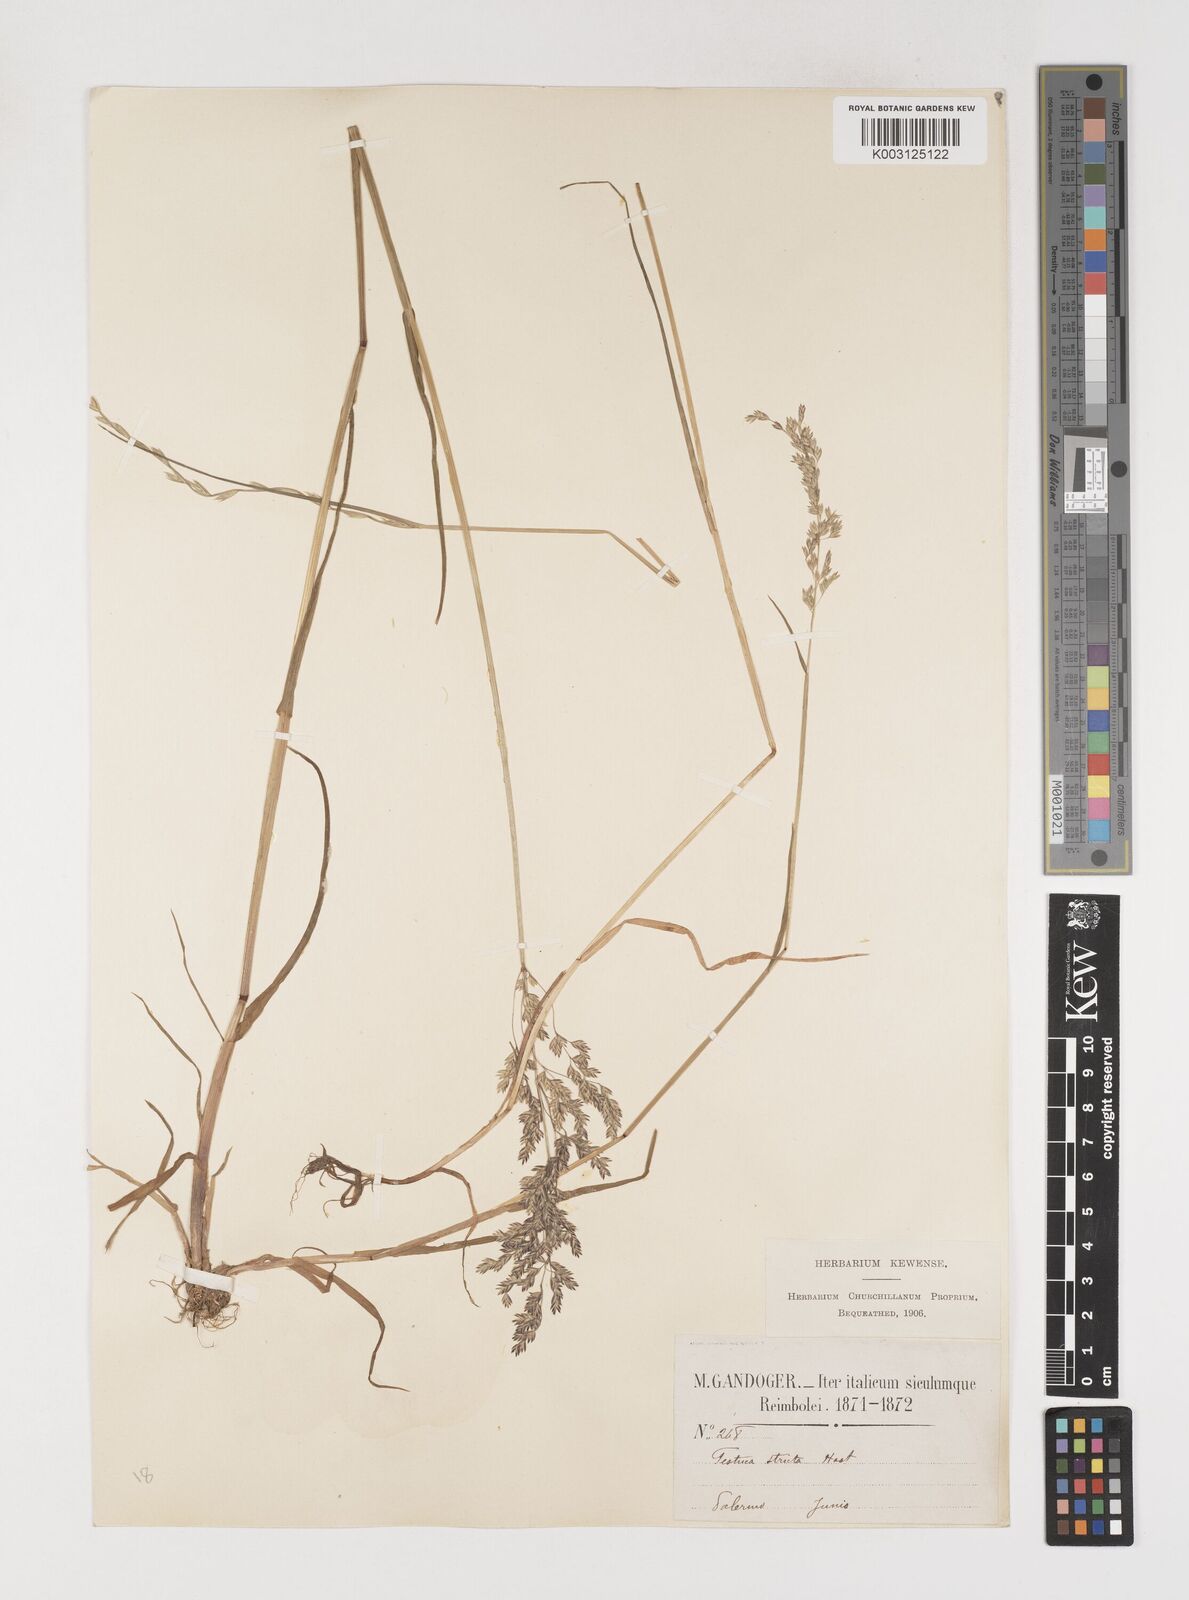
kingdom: Plantae
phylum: Tracheophyta
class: Liliopsida
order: Poales
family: Poaceae
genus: Poa
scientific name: Poa trivialis
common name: Rough bluegrass
